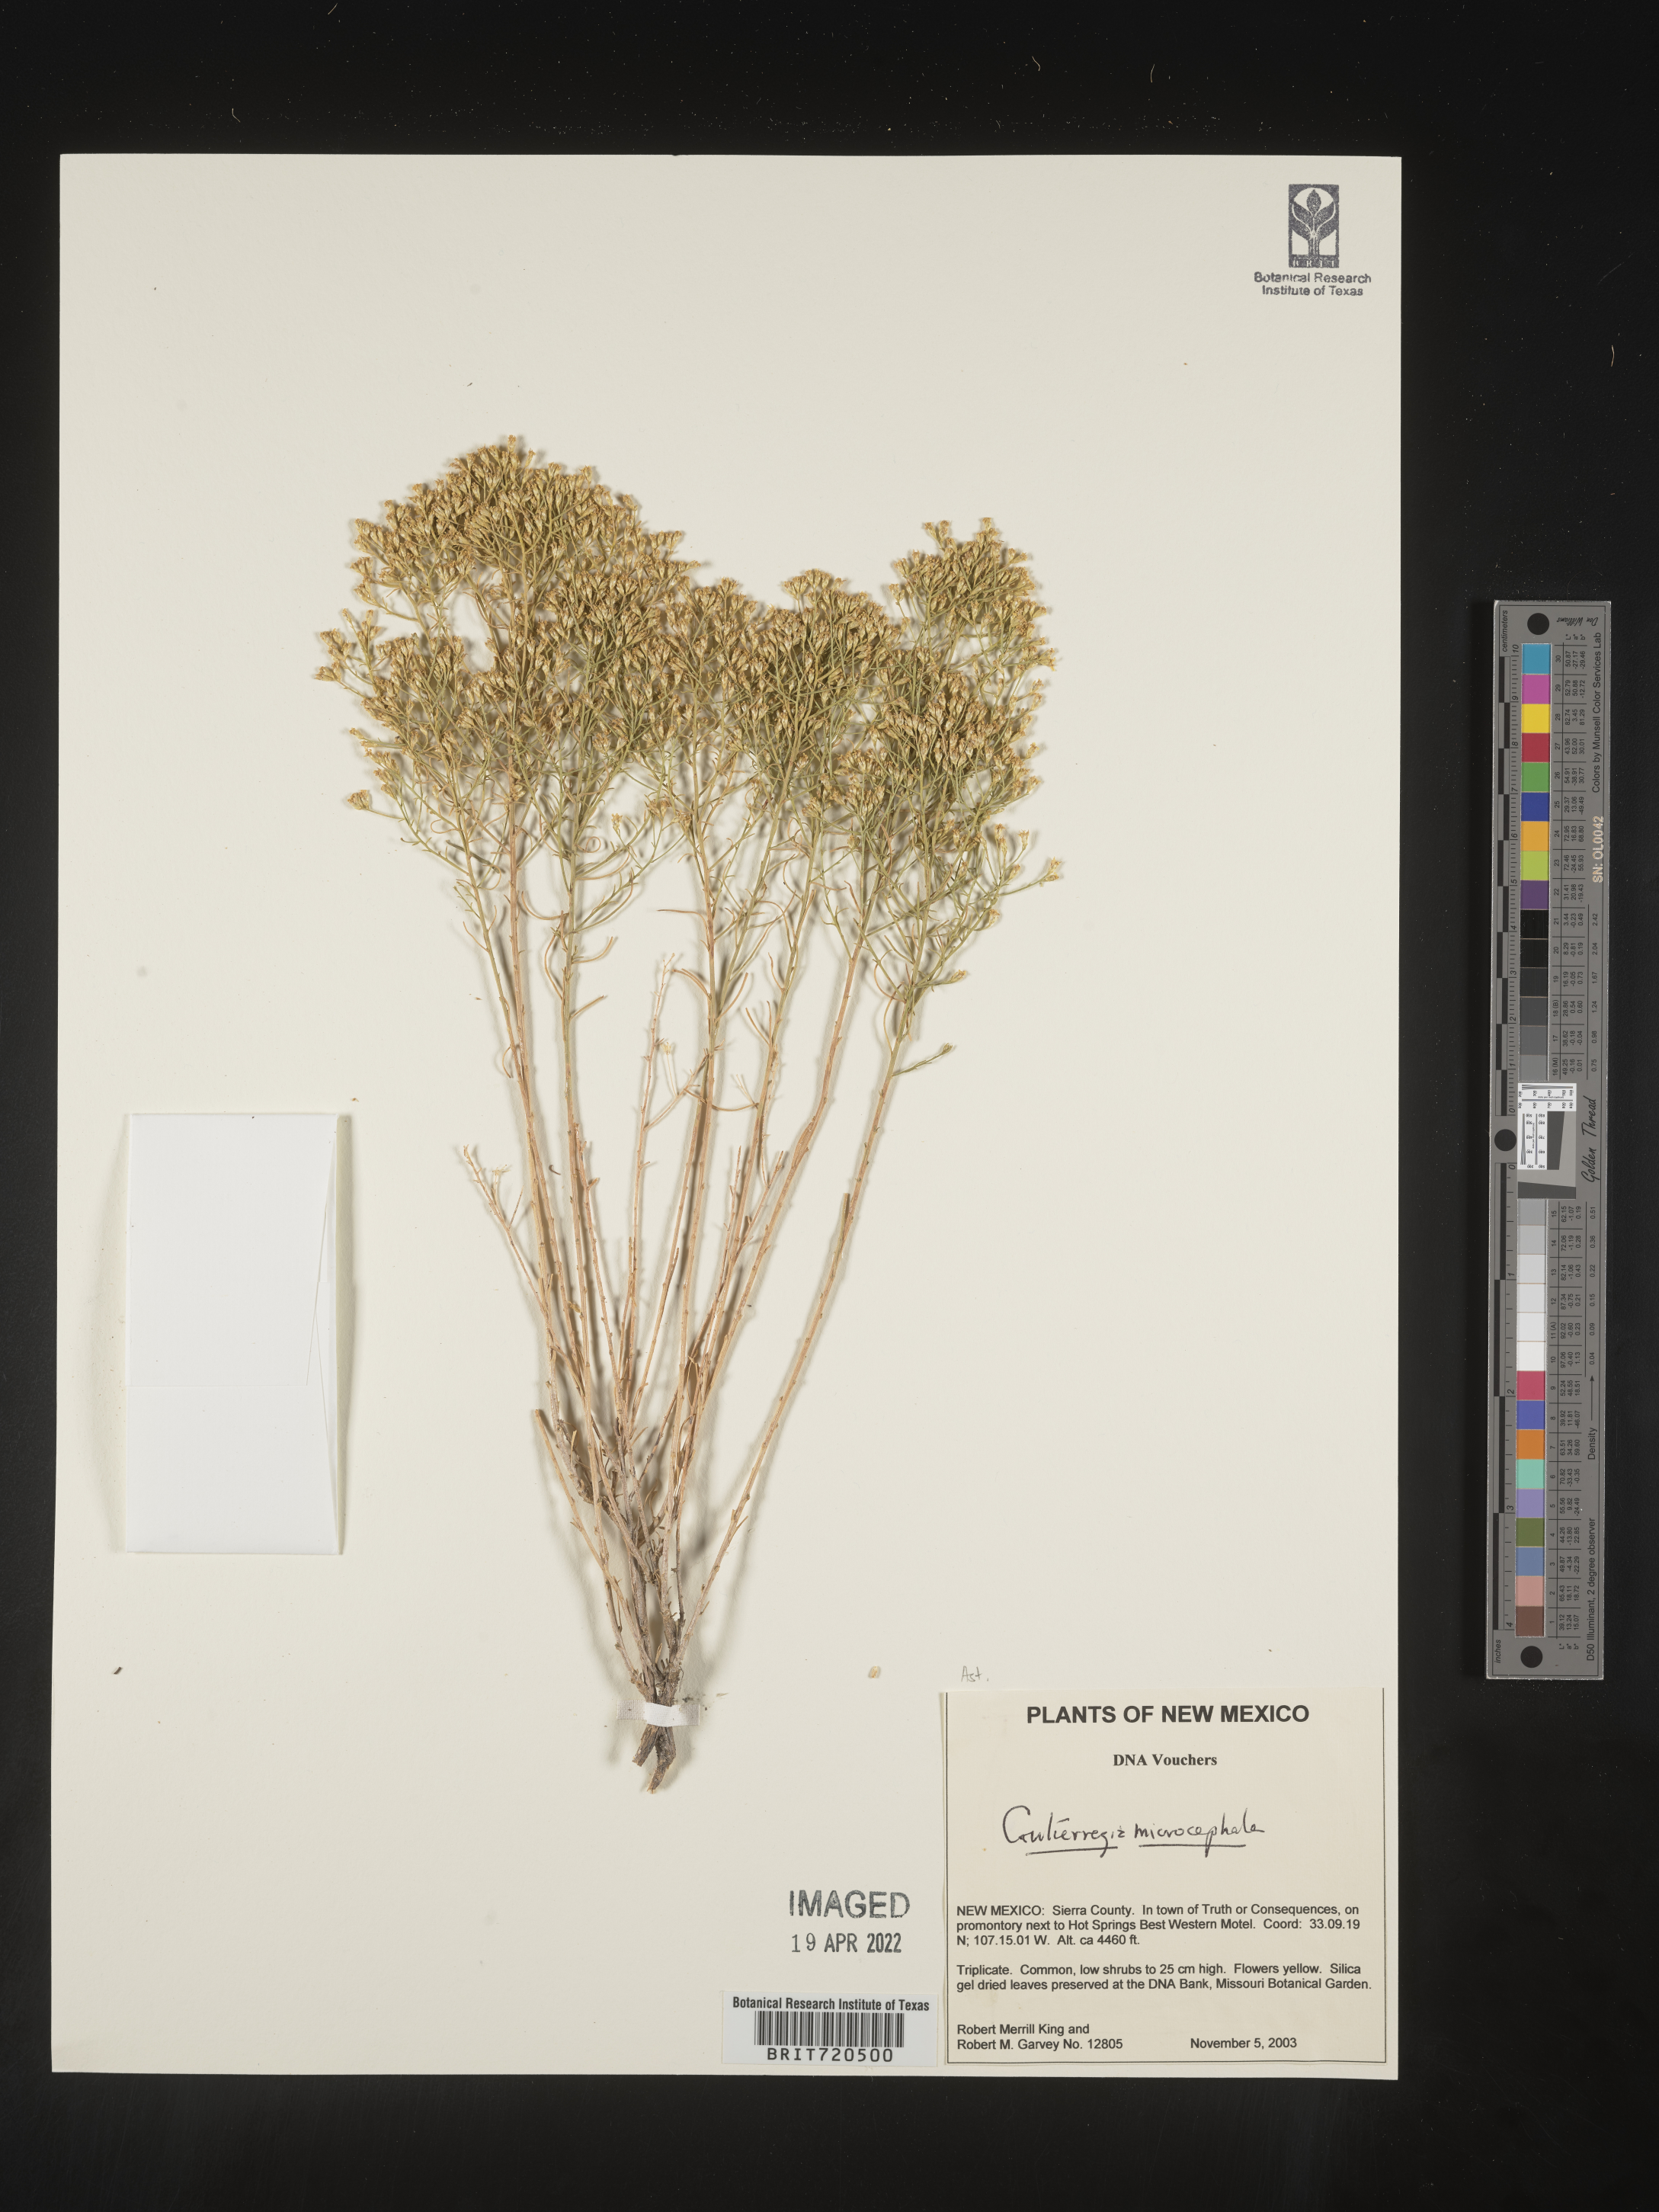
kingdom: Plantae
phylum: Tracheophyta
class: Magnoliopsida
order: Asterales
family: Asteraceae
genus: Gutierrezia
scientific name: Gutierrezia microcephala
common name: Thread snakeweed
